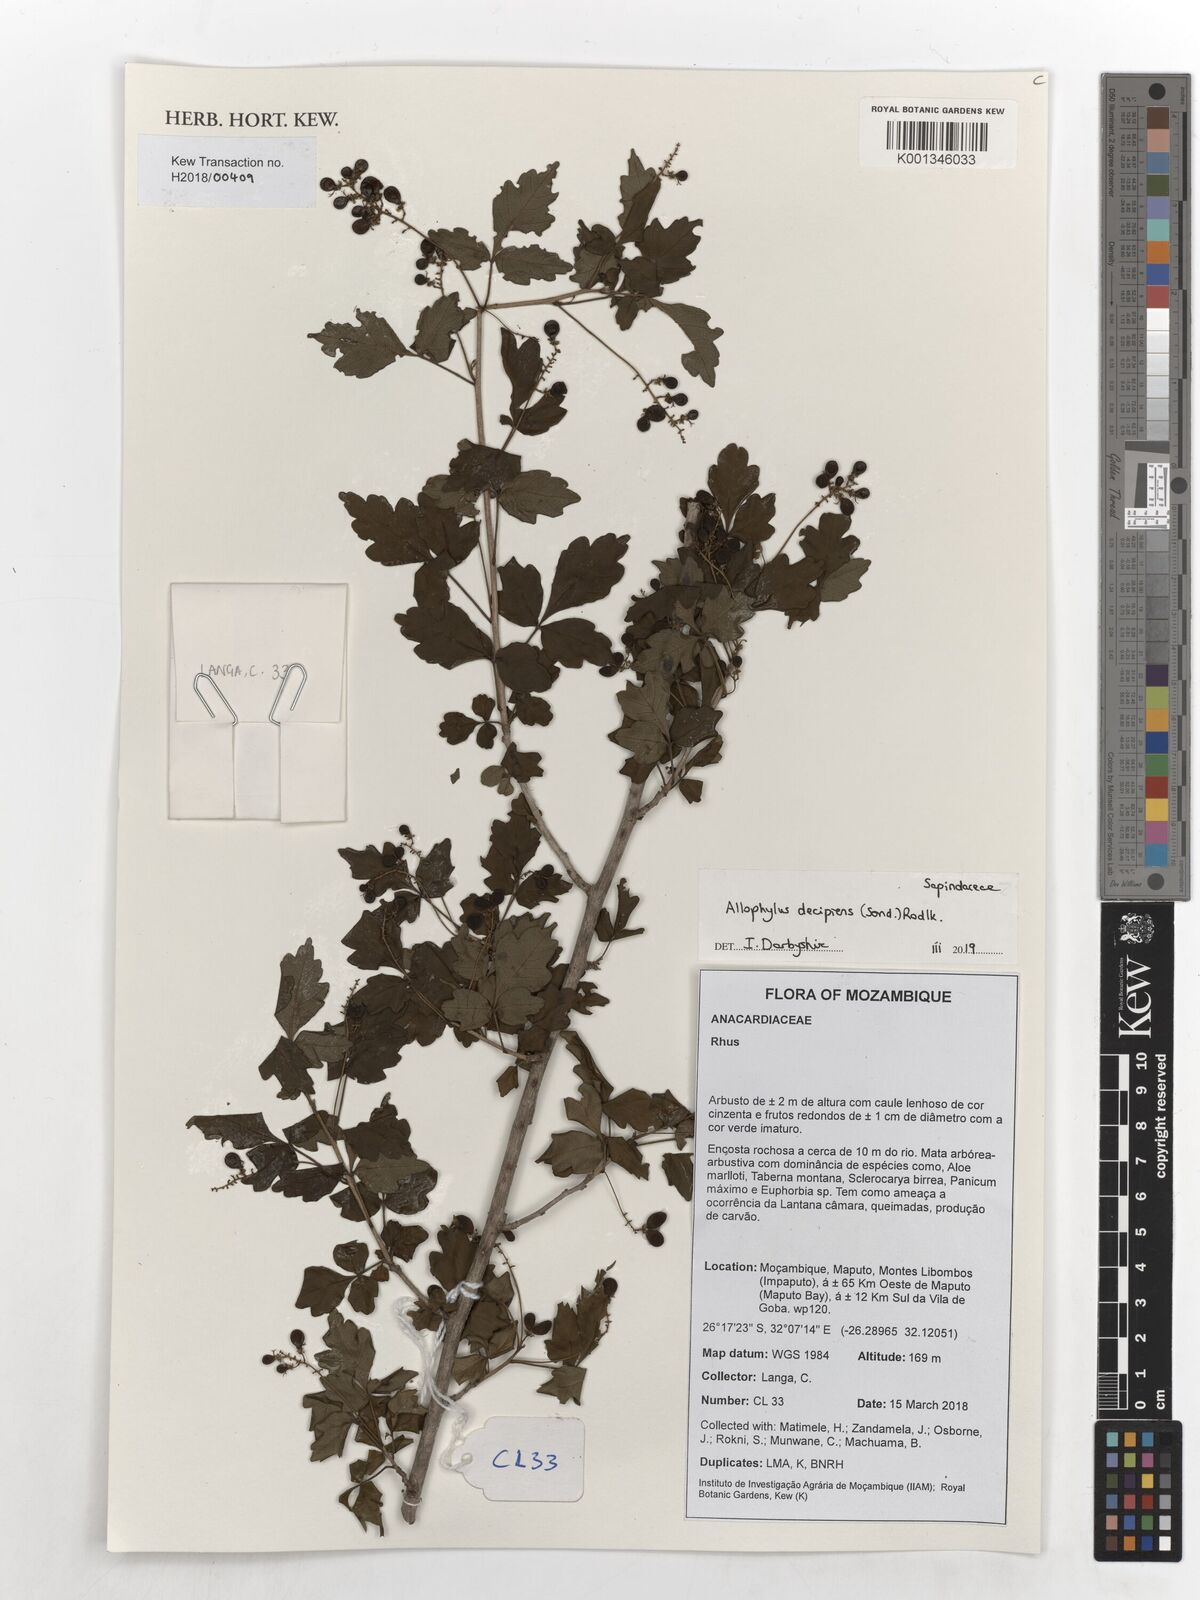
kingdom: Plantae
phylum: Tracheophyta
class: Magnoliopsida
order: Sapindales
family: Sapindaceae
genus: Allophylus
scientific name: Allophylus decipiens
